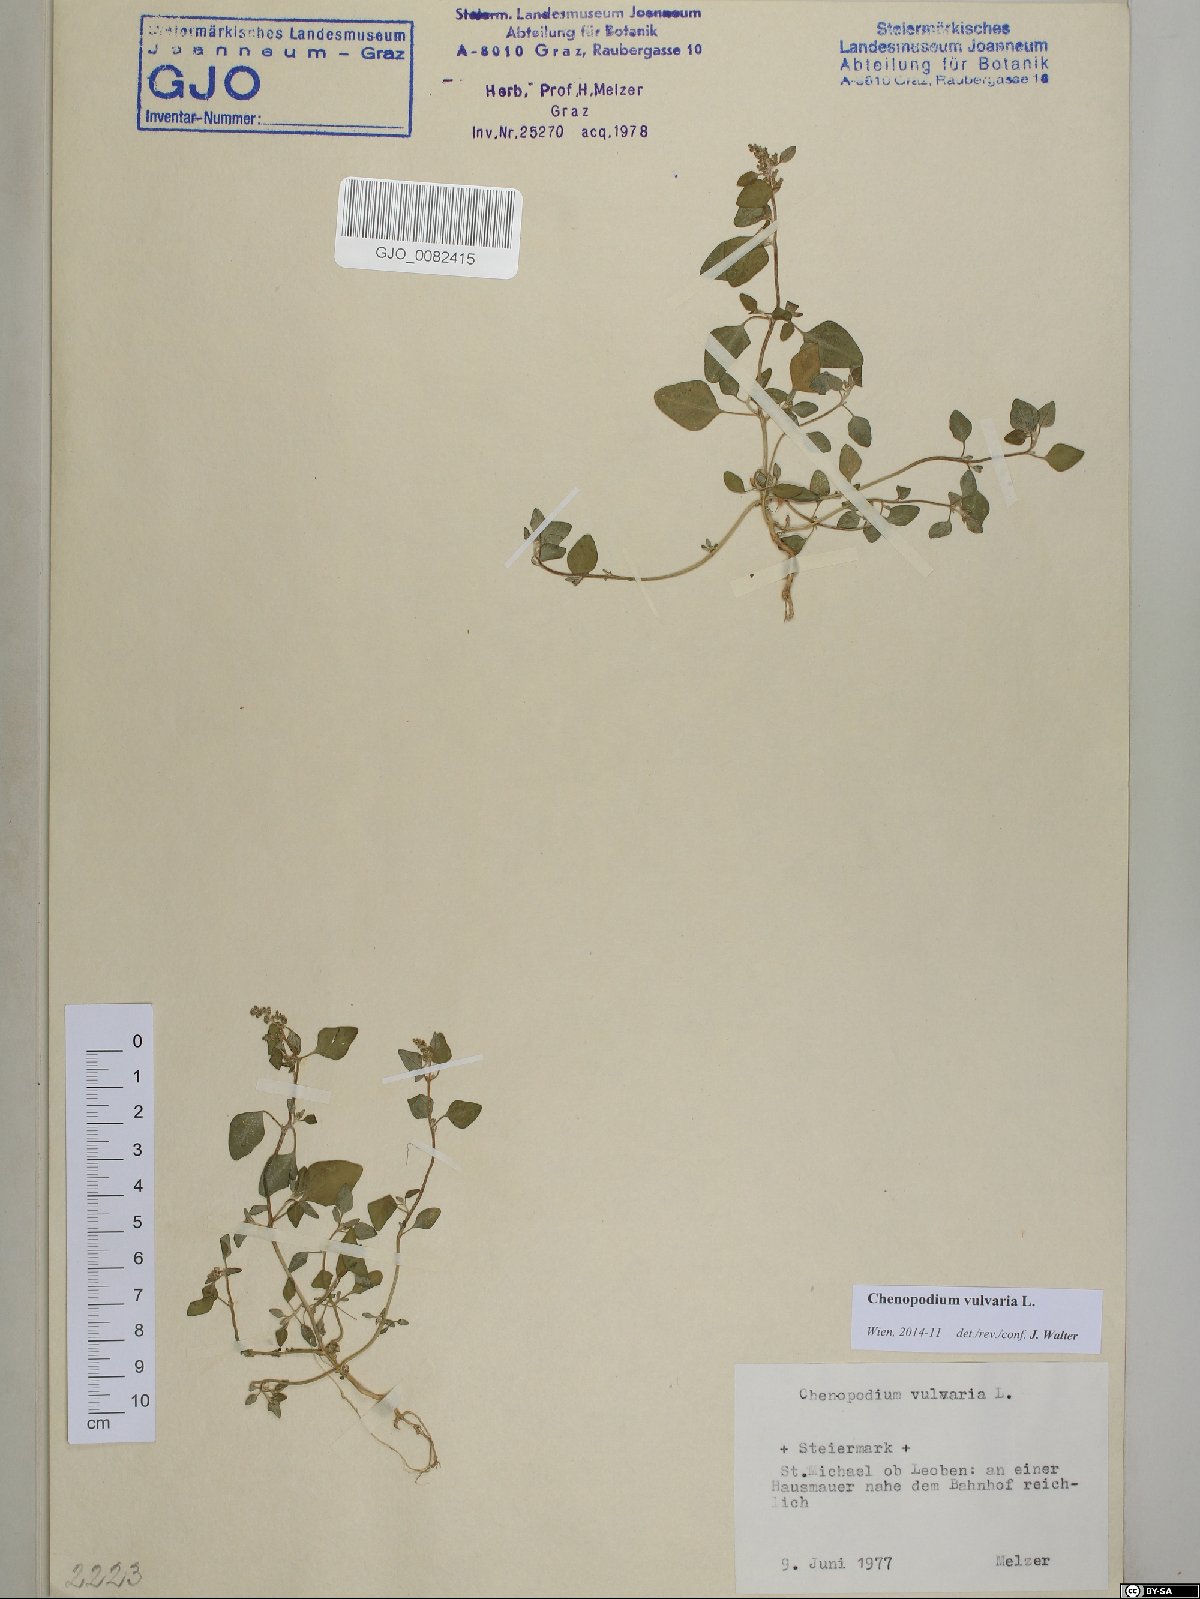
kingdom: Plantae
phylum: Tracheophyta
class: Magnoliopsida
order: Caryophyllales
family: Amaranthaceae
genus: Chenopodium
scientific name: Chenopodium vulvaria
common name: Stinking goosefoot
